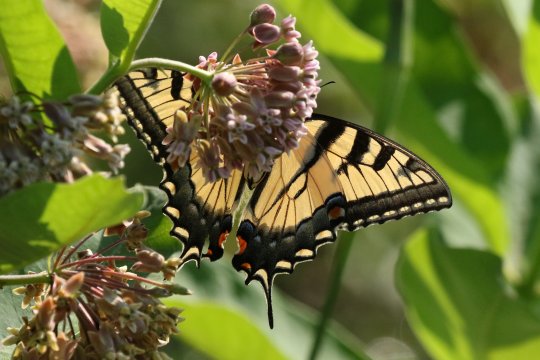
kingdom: Animalia
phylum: Arthropoda
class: Insecta
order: Lepidoptera
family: Papilionidae
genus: Pterourus
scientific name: Pterourus
